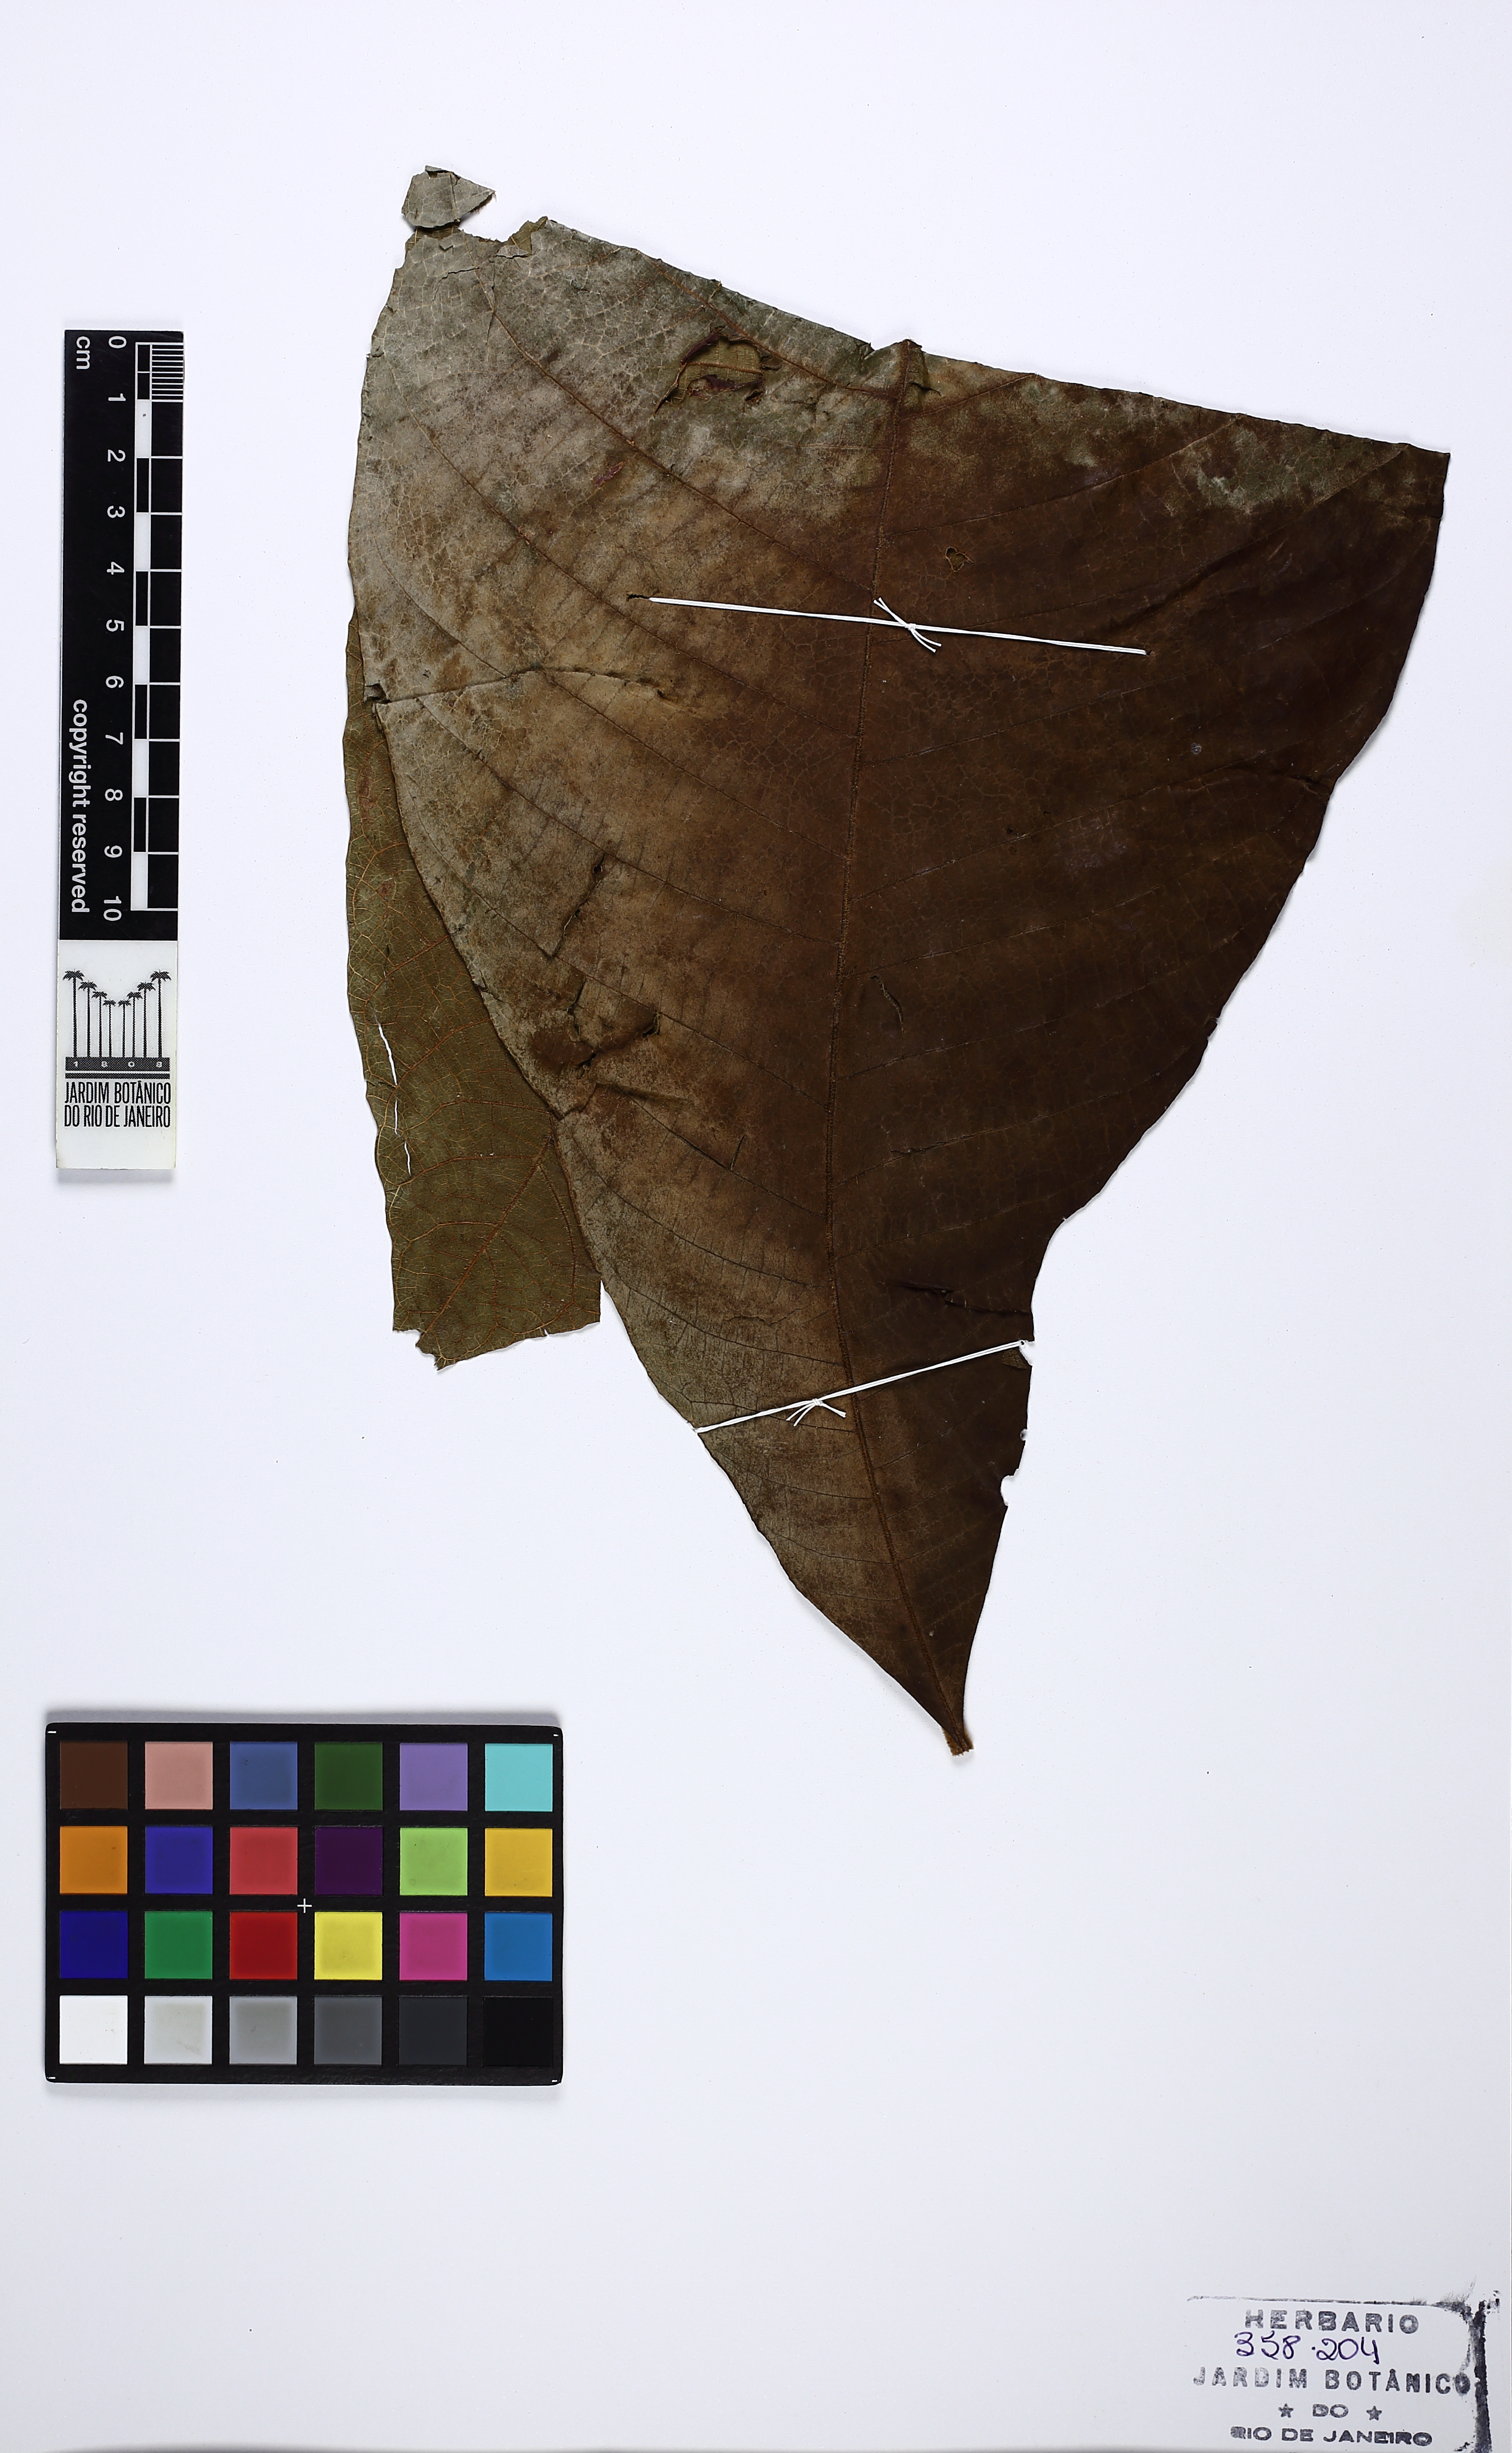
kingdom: Plantae
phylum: Tracheophyta
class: Magnoliopsida
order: Gentianales
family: Rubiaceae
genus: Schizocalyx
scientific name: Schizocalyx cuspidatus
